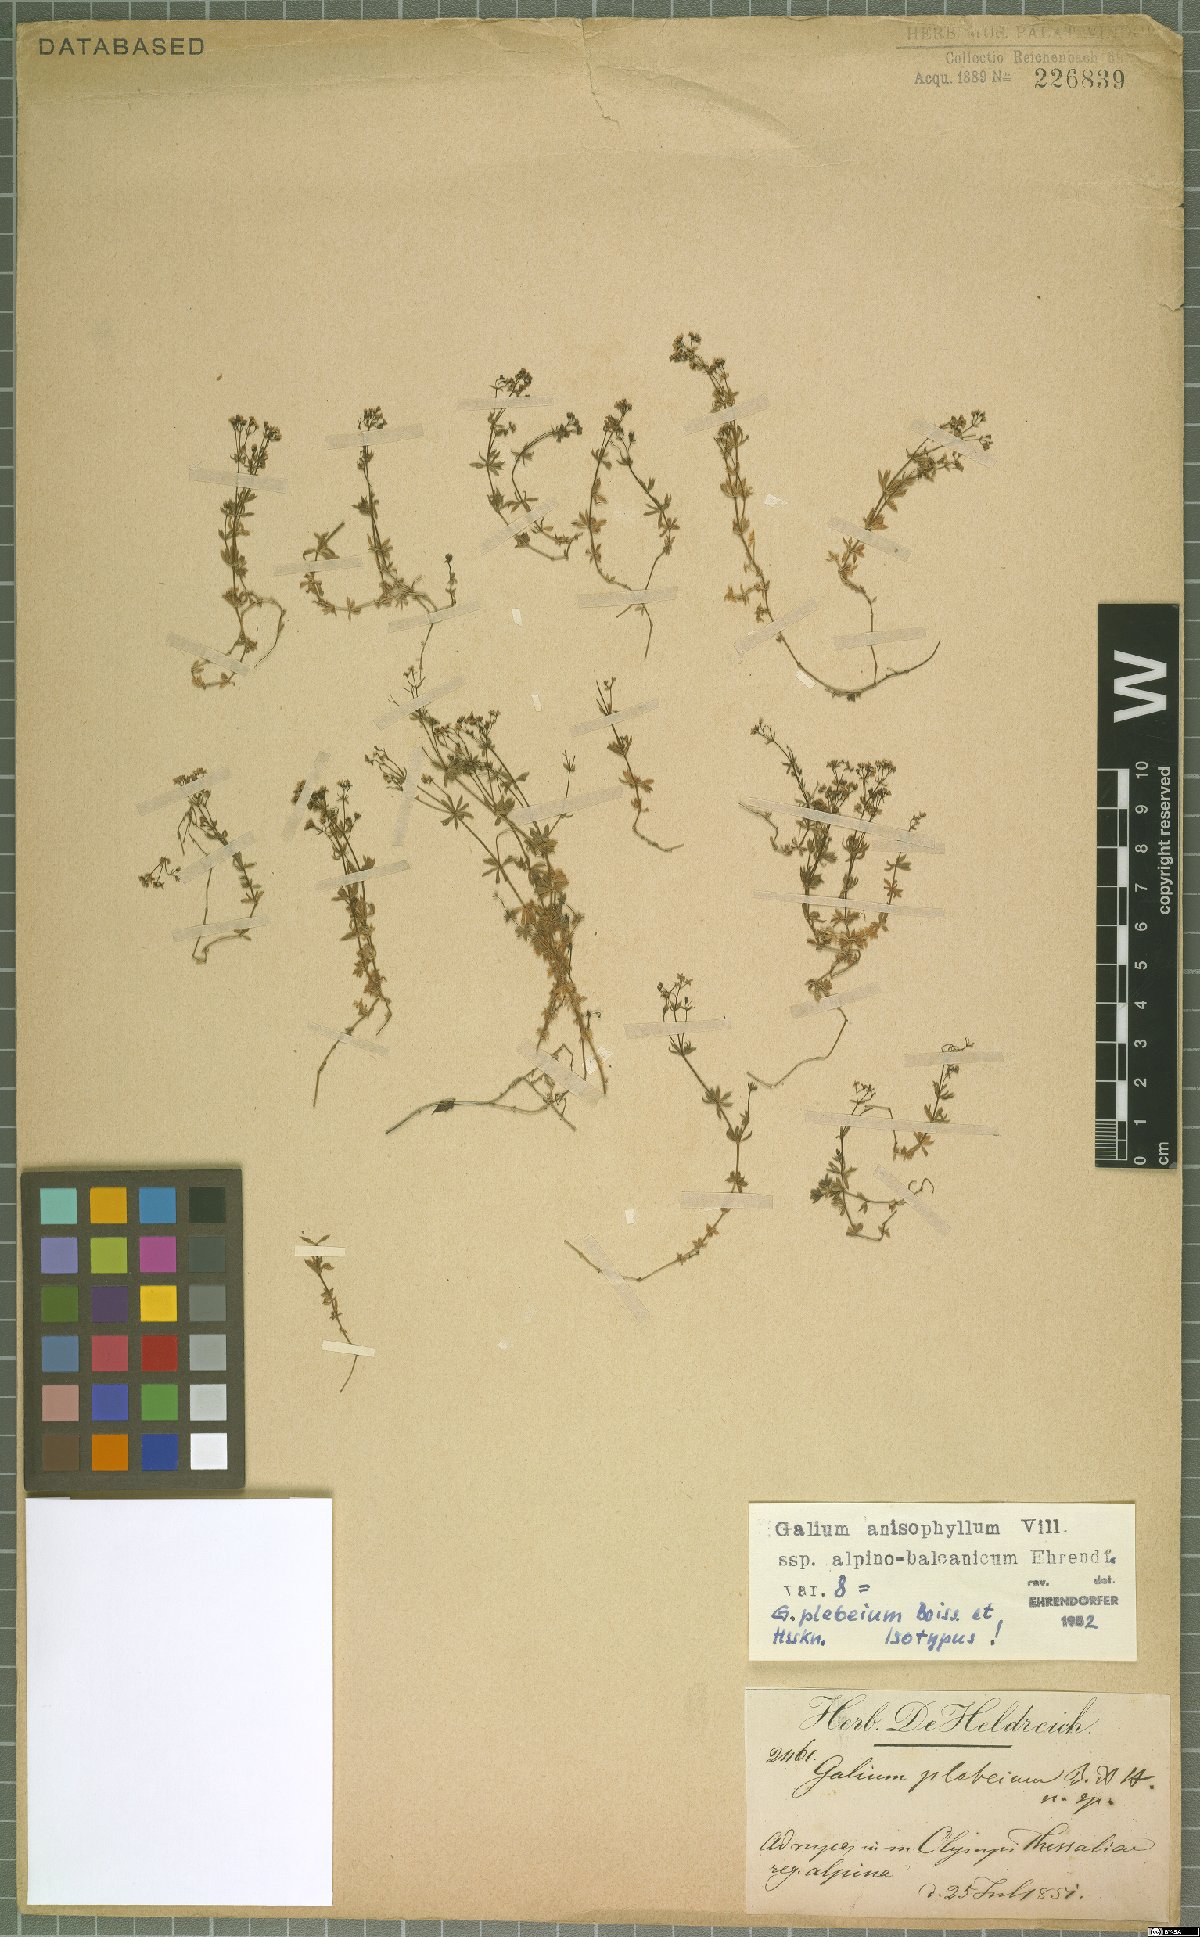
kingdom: Plantae
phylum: Tracheophyta
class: Magnoliopsida
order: Gentianales
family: Rubiaceae
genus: Galium
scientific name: Galium anisophyllon
